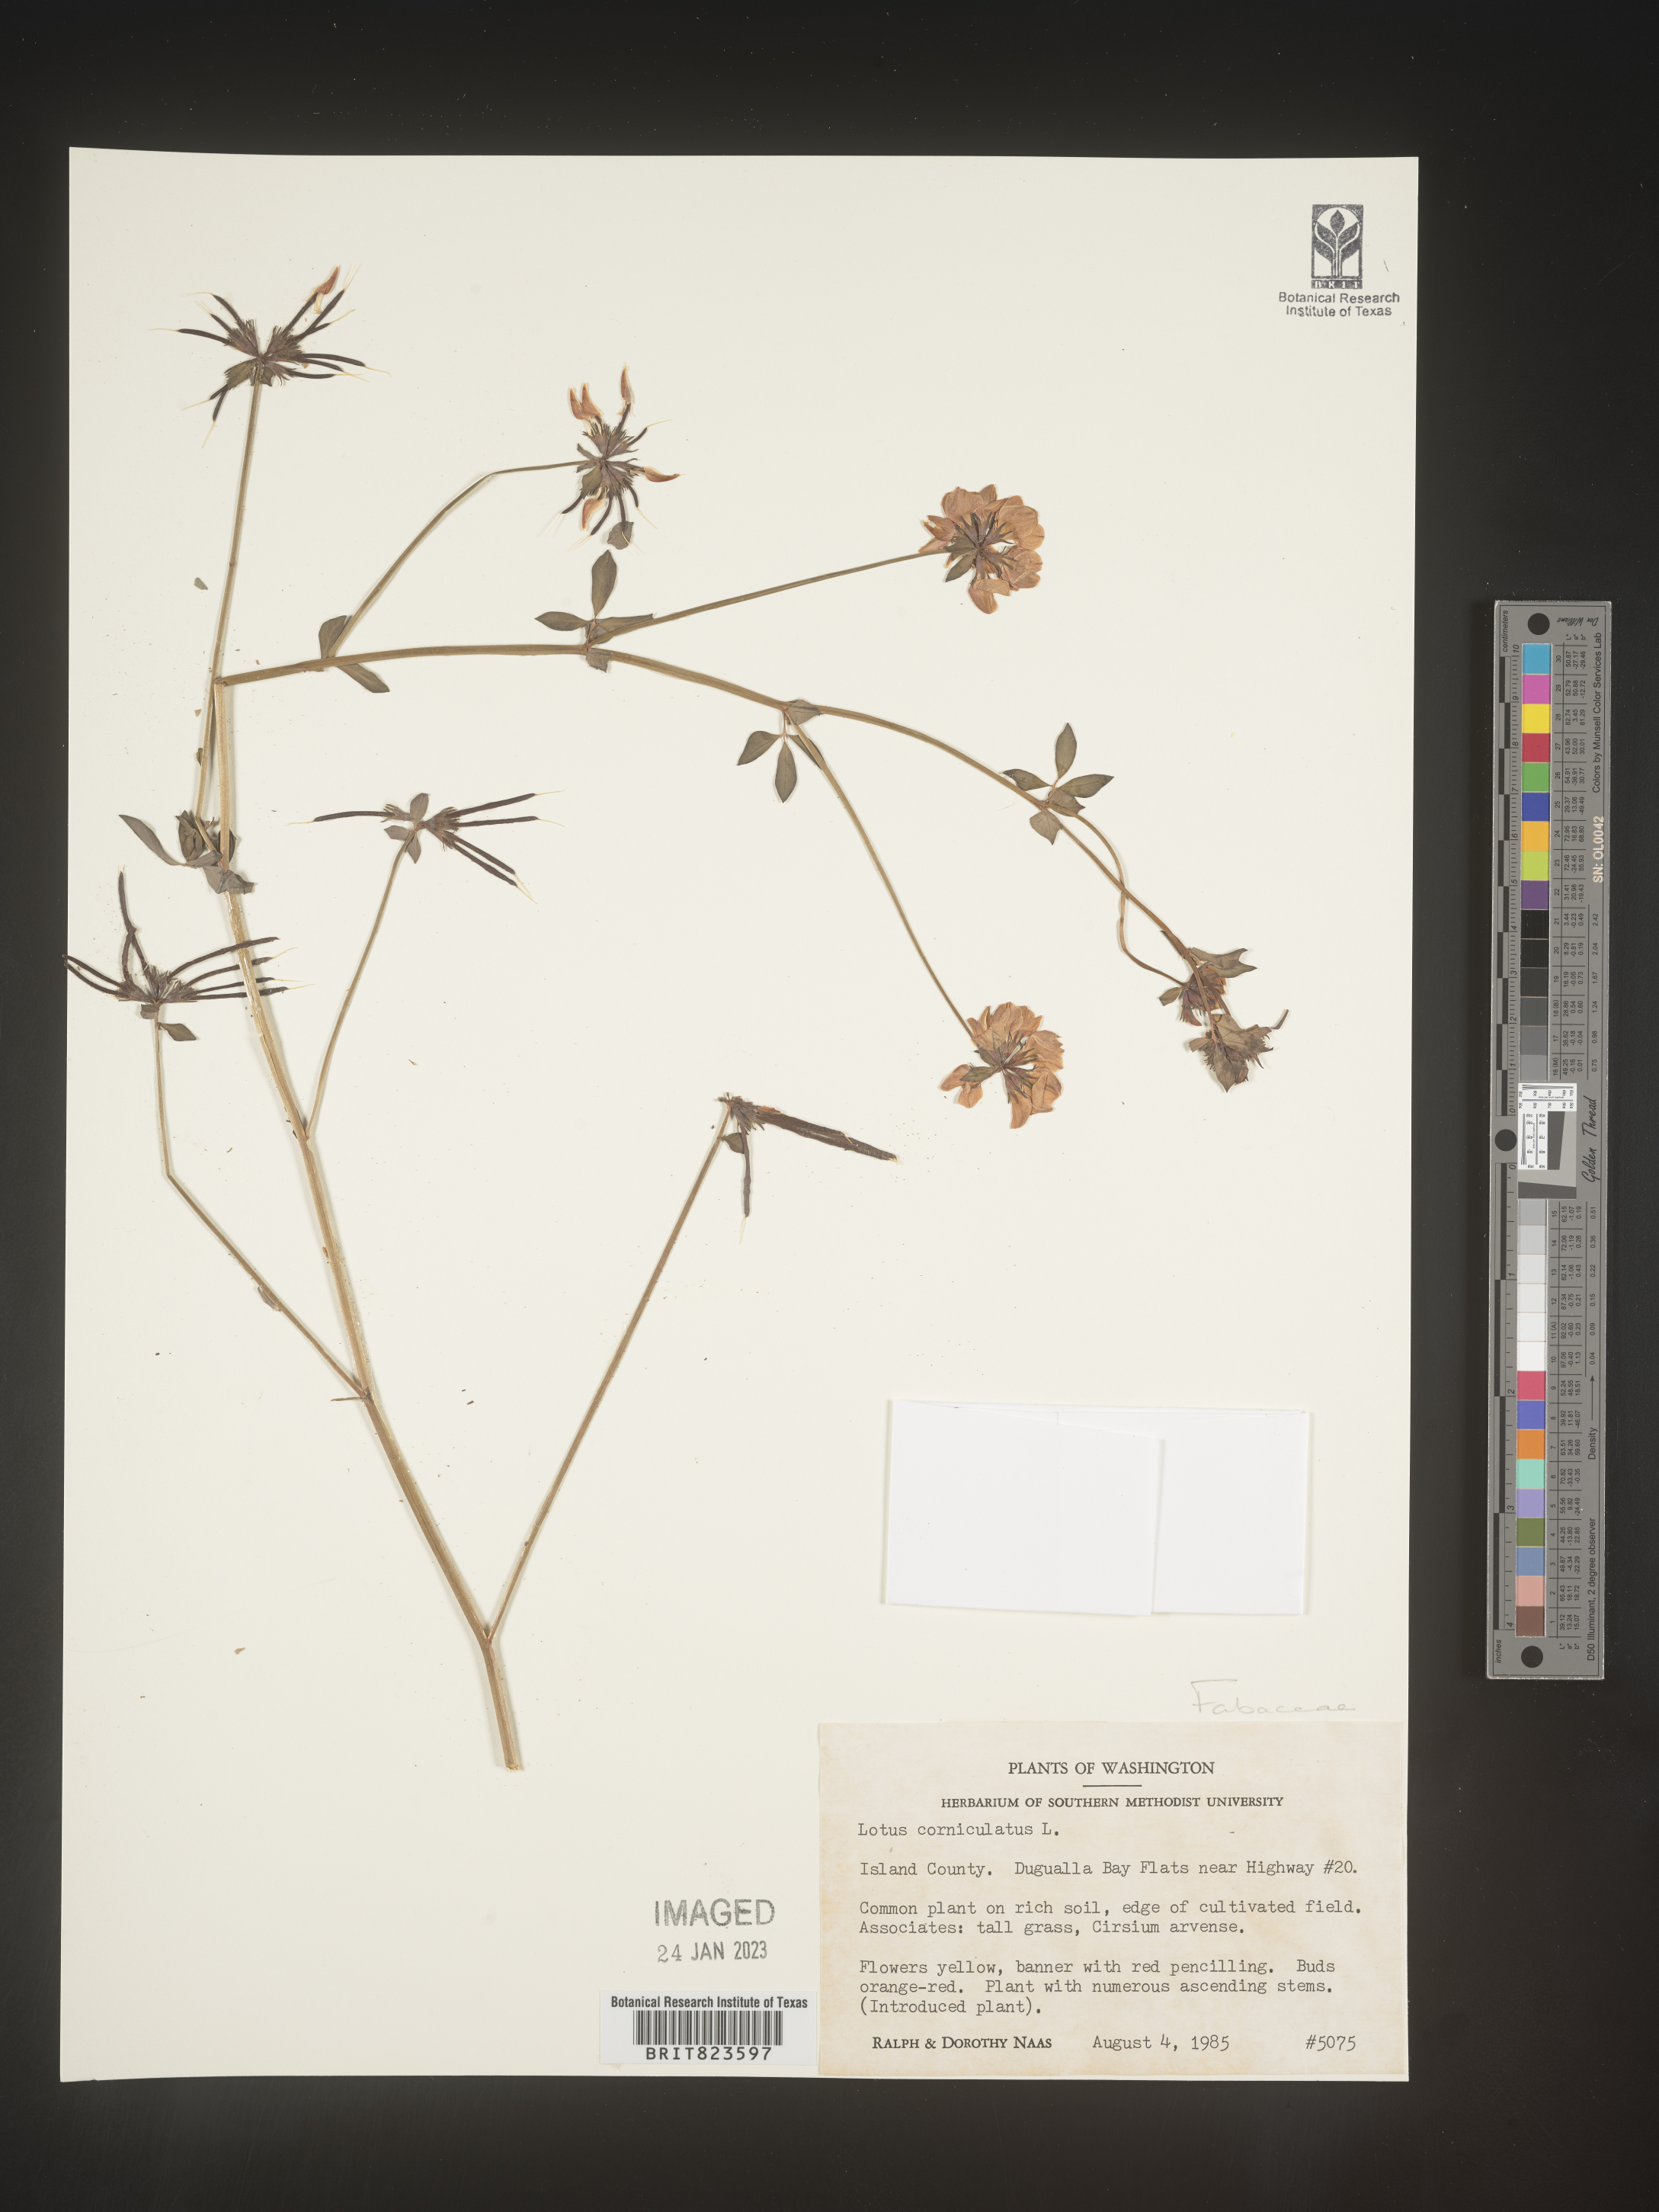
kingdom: Plantae
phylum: Tracheophyta
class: Magnoliopsida
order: Fabales
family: Fabaceae
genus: Lotus
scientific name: Lotus corniculatus
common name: Common bird's-foot-trefoil
